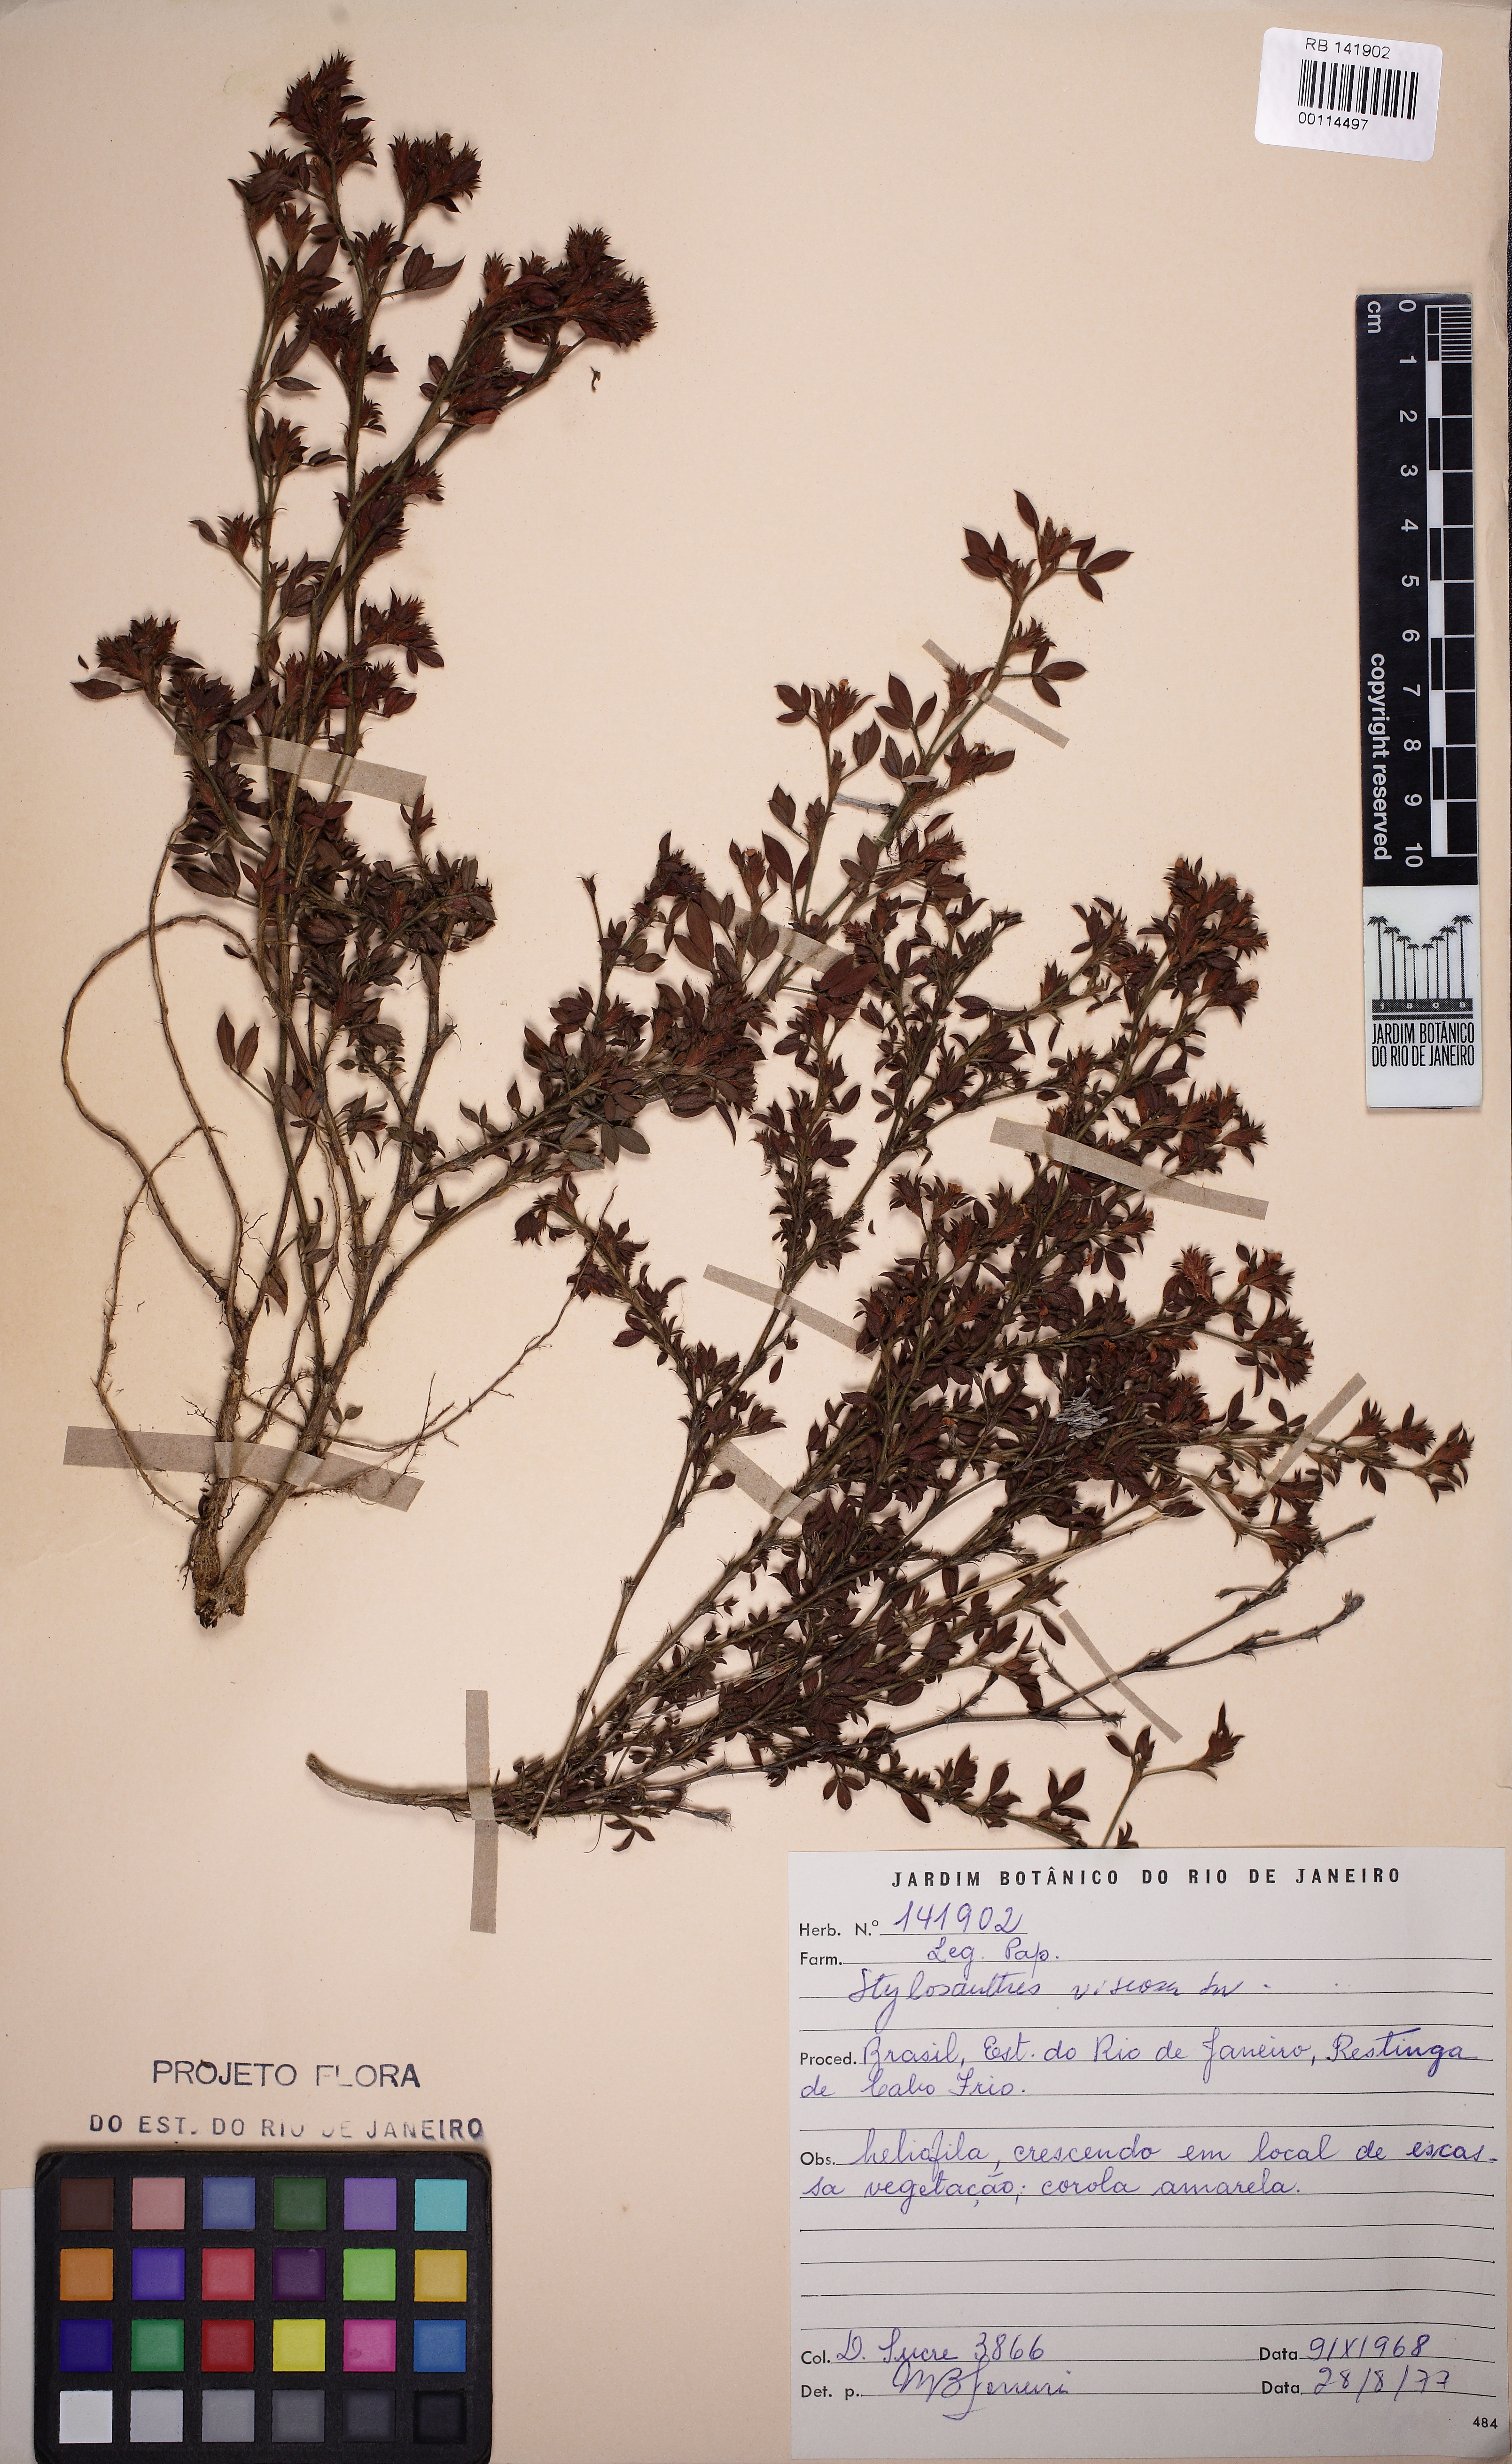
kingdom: Plantae
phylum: Tracheophyta
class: Magnoliopsida
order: Fabales
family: Fabaceae
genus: Stylosanthes
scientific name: Stylosanthes viscosa
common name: Viscid pencil-flower
